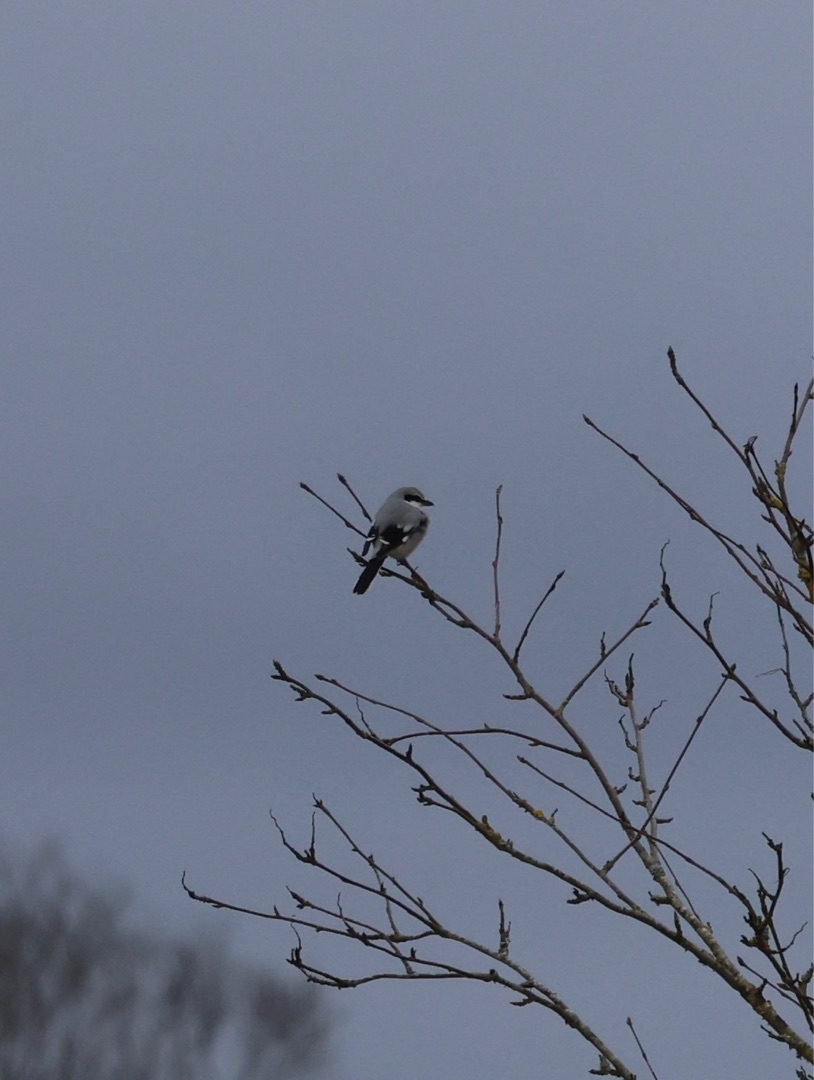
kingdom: Animalia
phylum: Chordata
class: Aves
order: Passeriformes
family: Laniidae
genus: Lanius
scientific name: Lanius excubitor
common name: Stor tornskade
